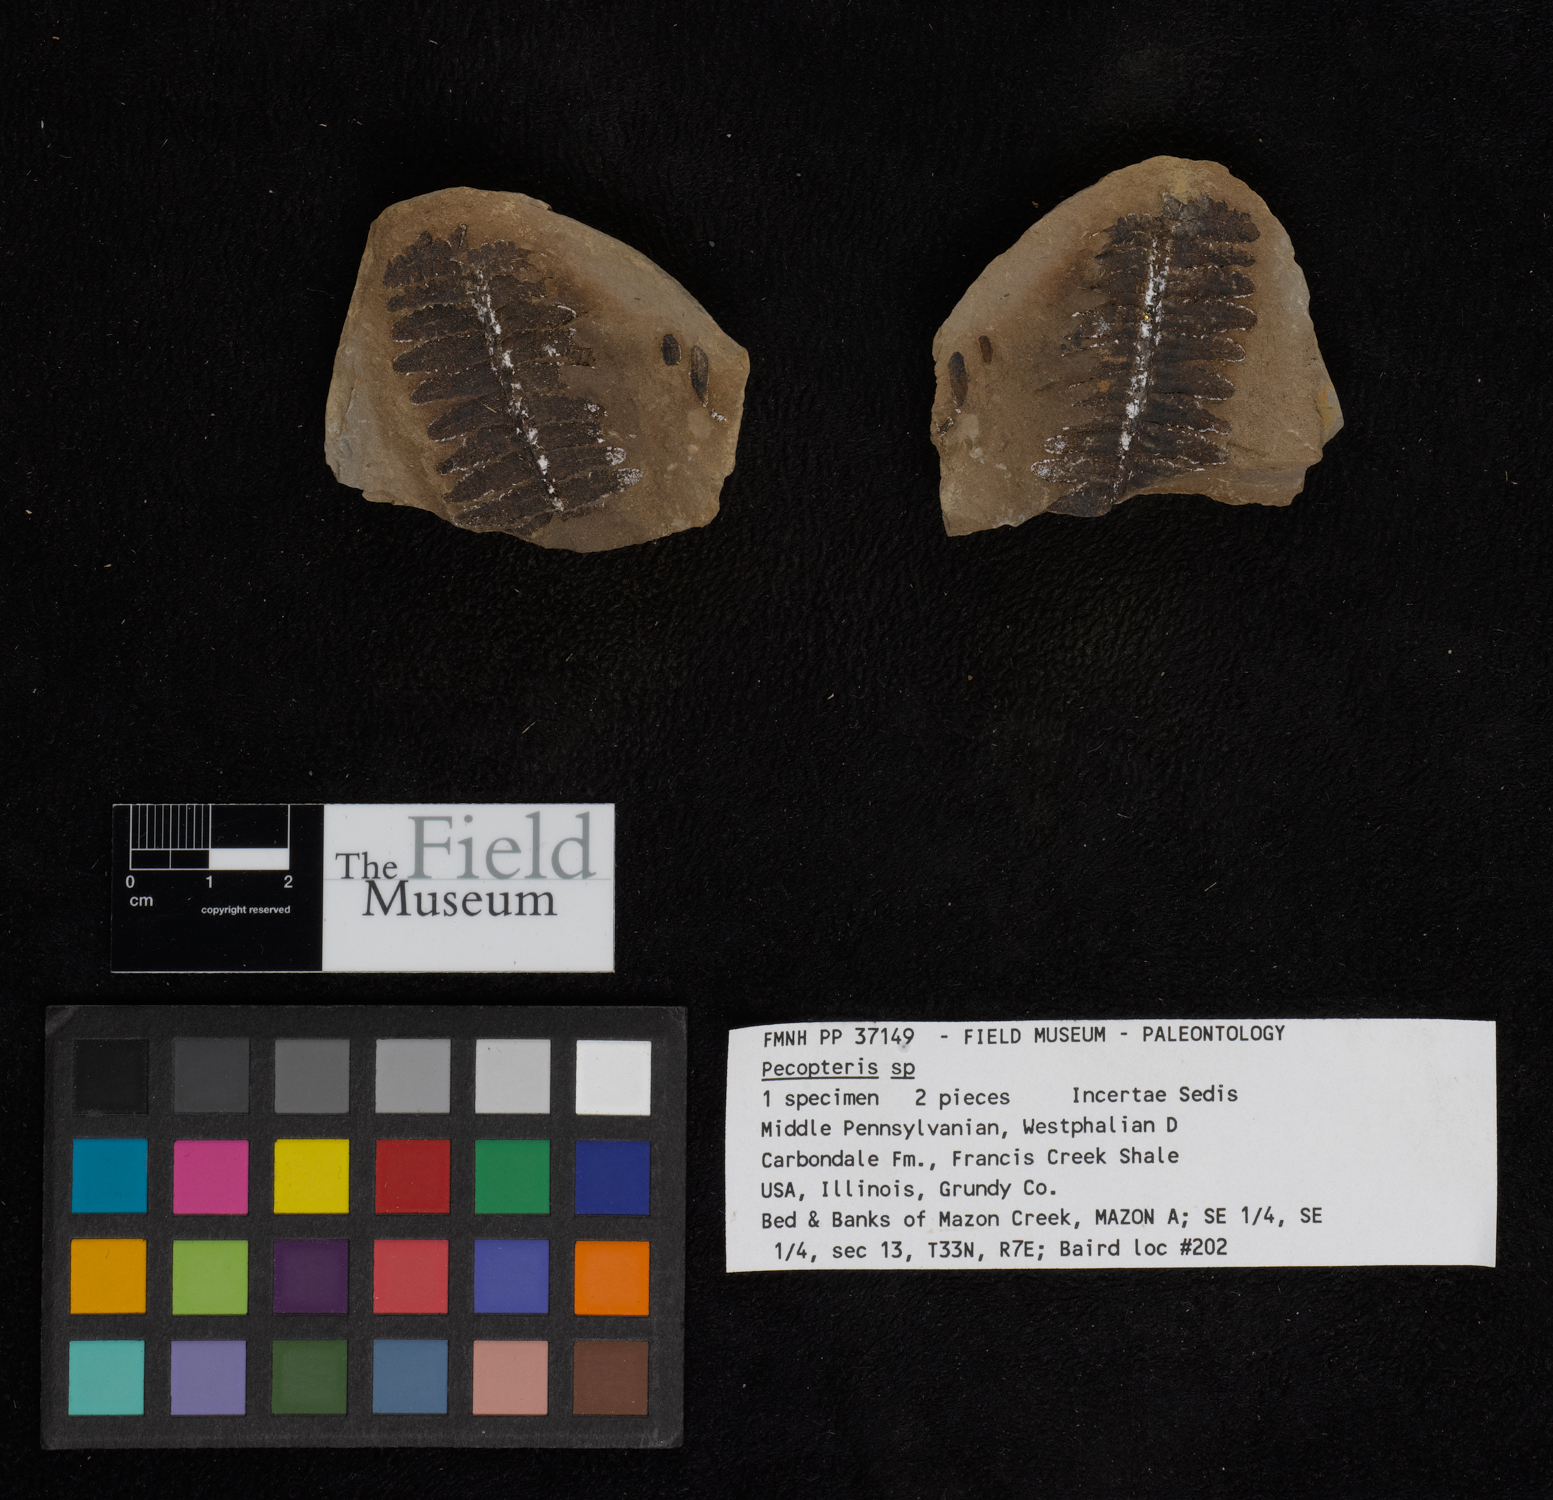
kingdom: Plantae
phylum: Tracheophyta
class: Polypodiopsida
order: Marattiales
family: Asterothecaceae
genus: Pecopteris
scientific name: Pecopteris
